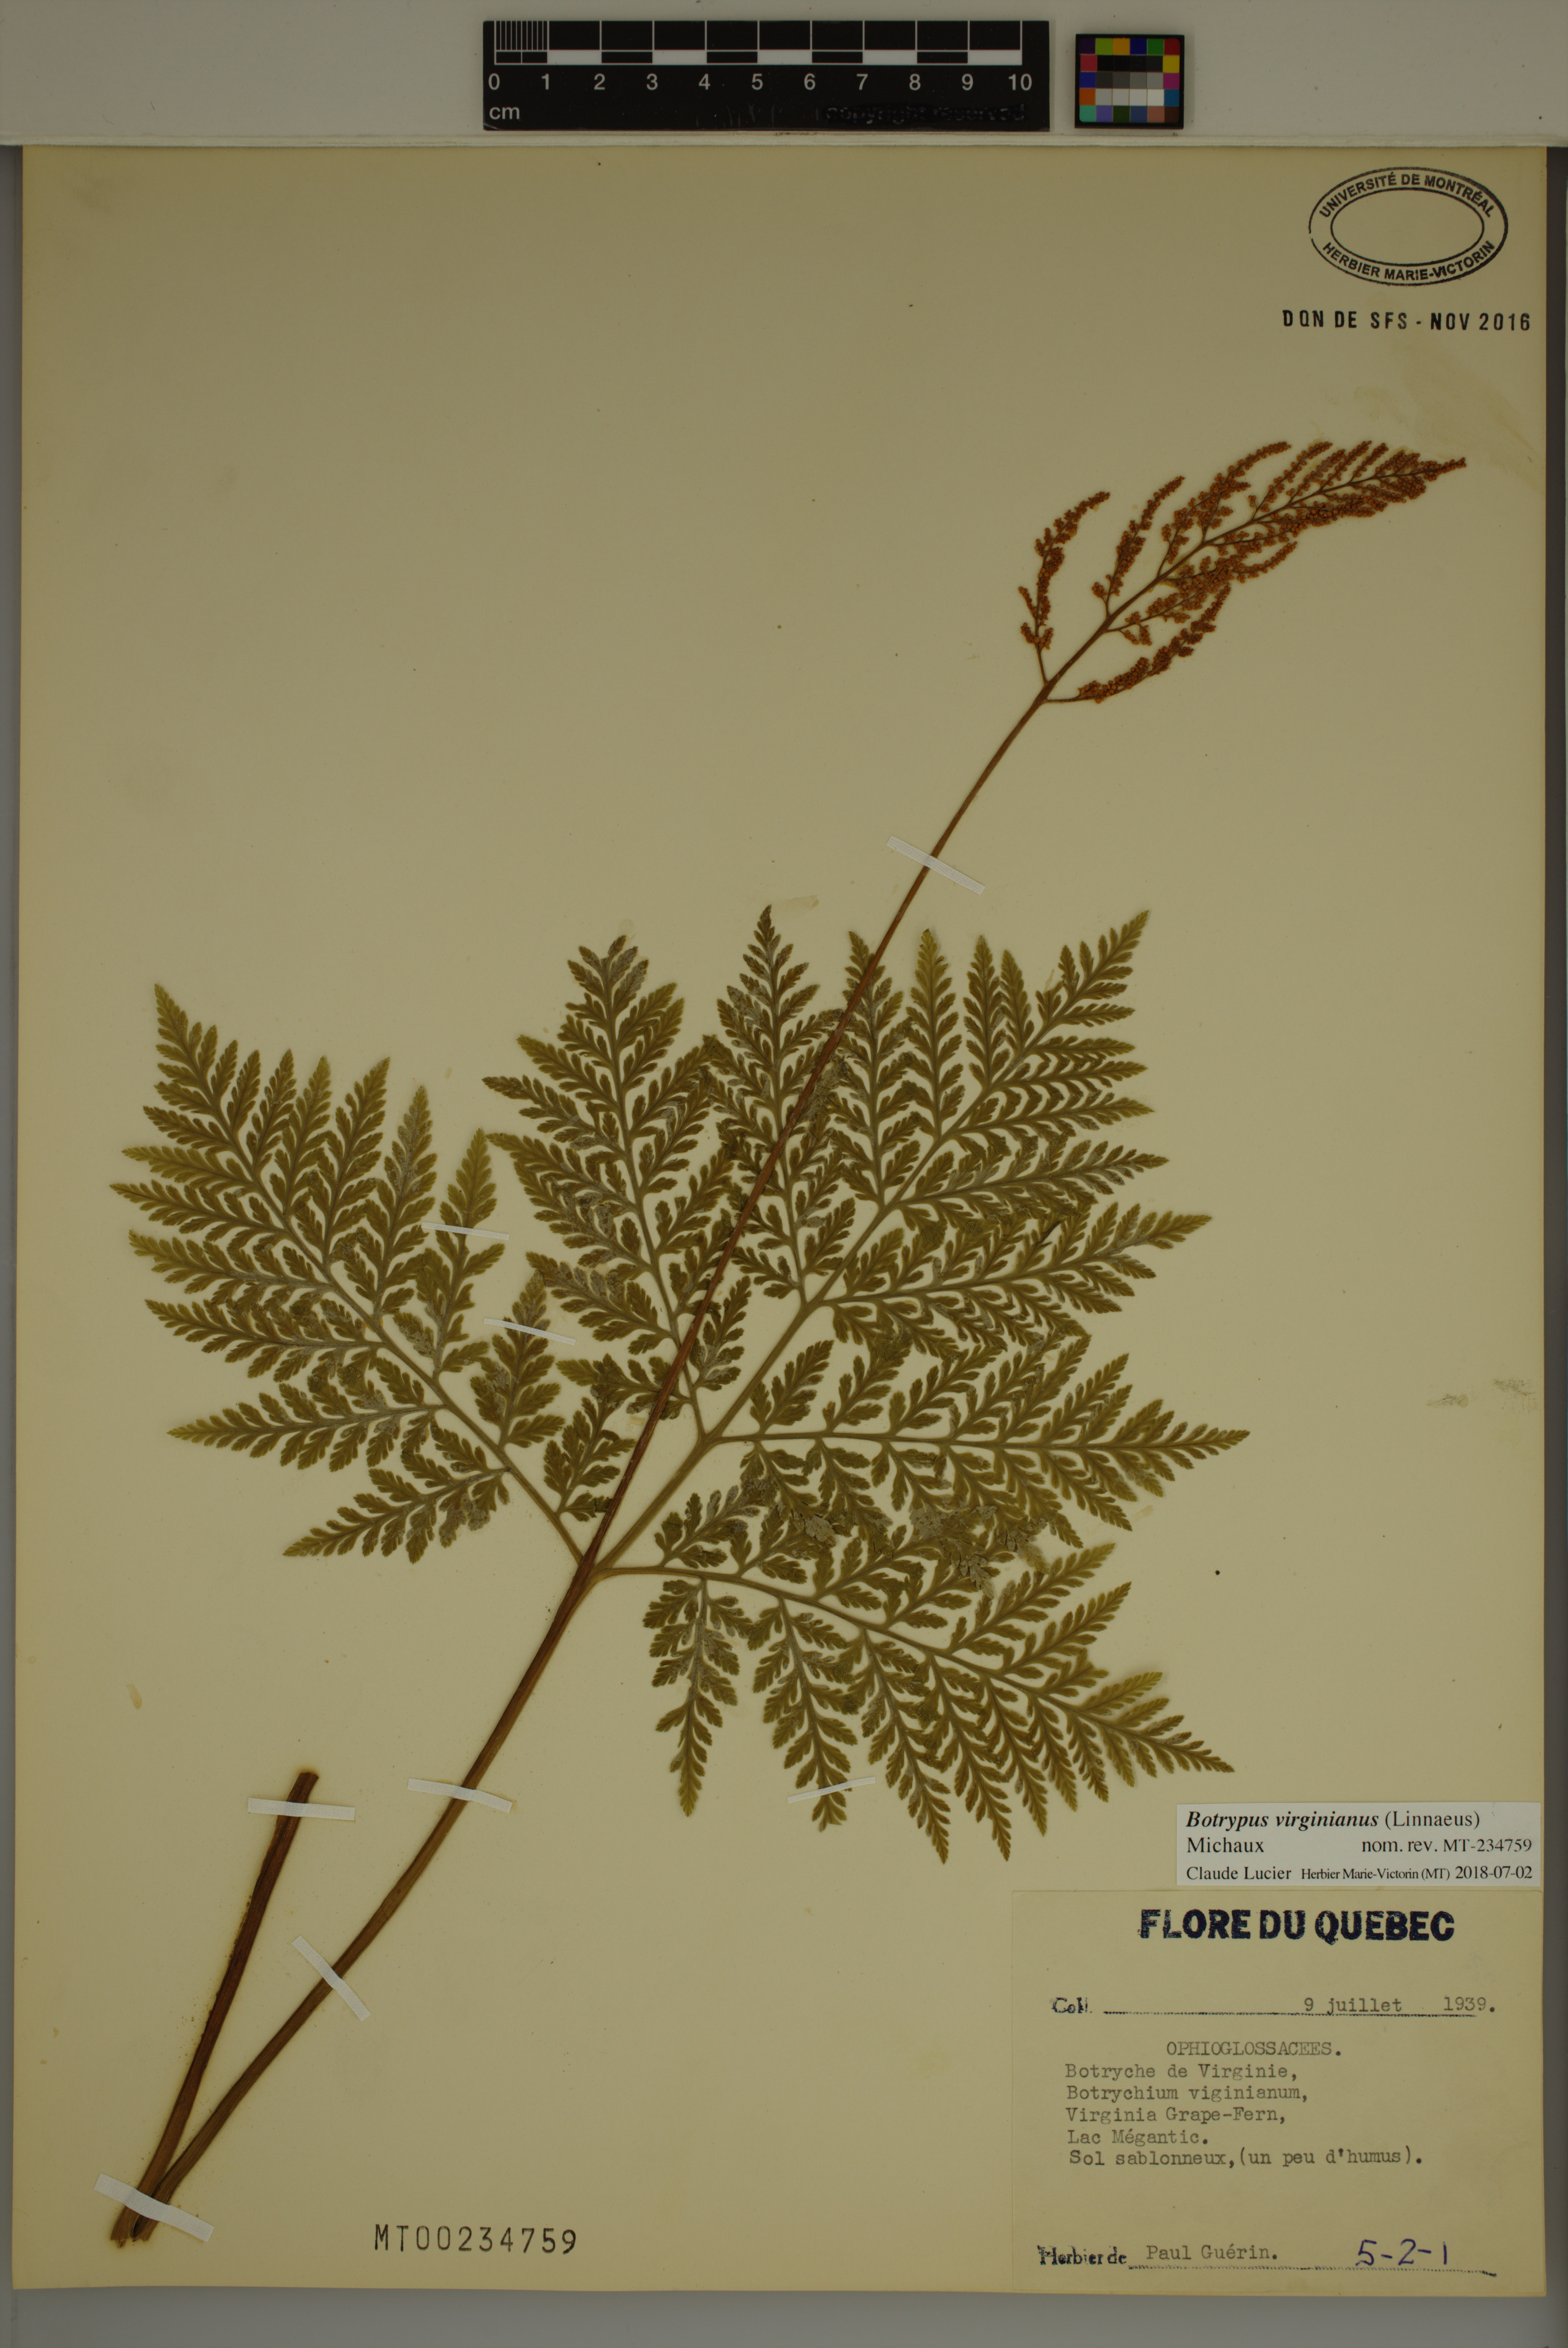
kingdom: Plantae
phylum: Tracheophyta
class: Polypodiopsida
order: Ophioglossales
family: Ophioglossaceae
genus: Botrypus
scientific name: Botrypus virginianus
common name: Common grapefern
